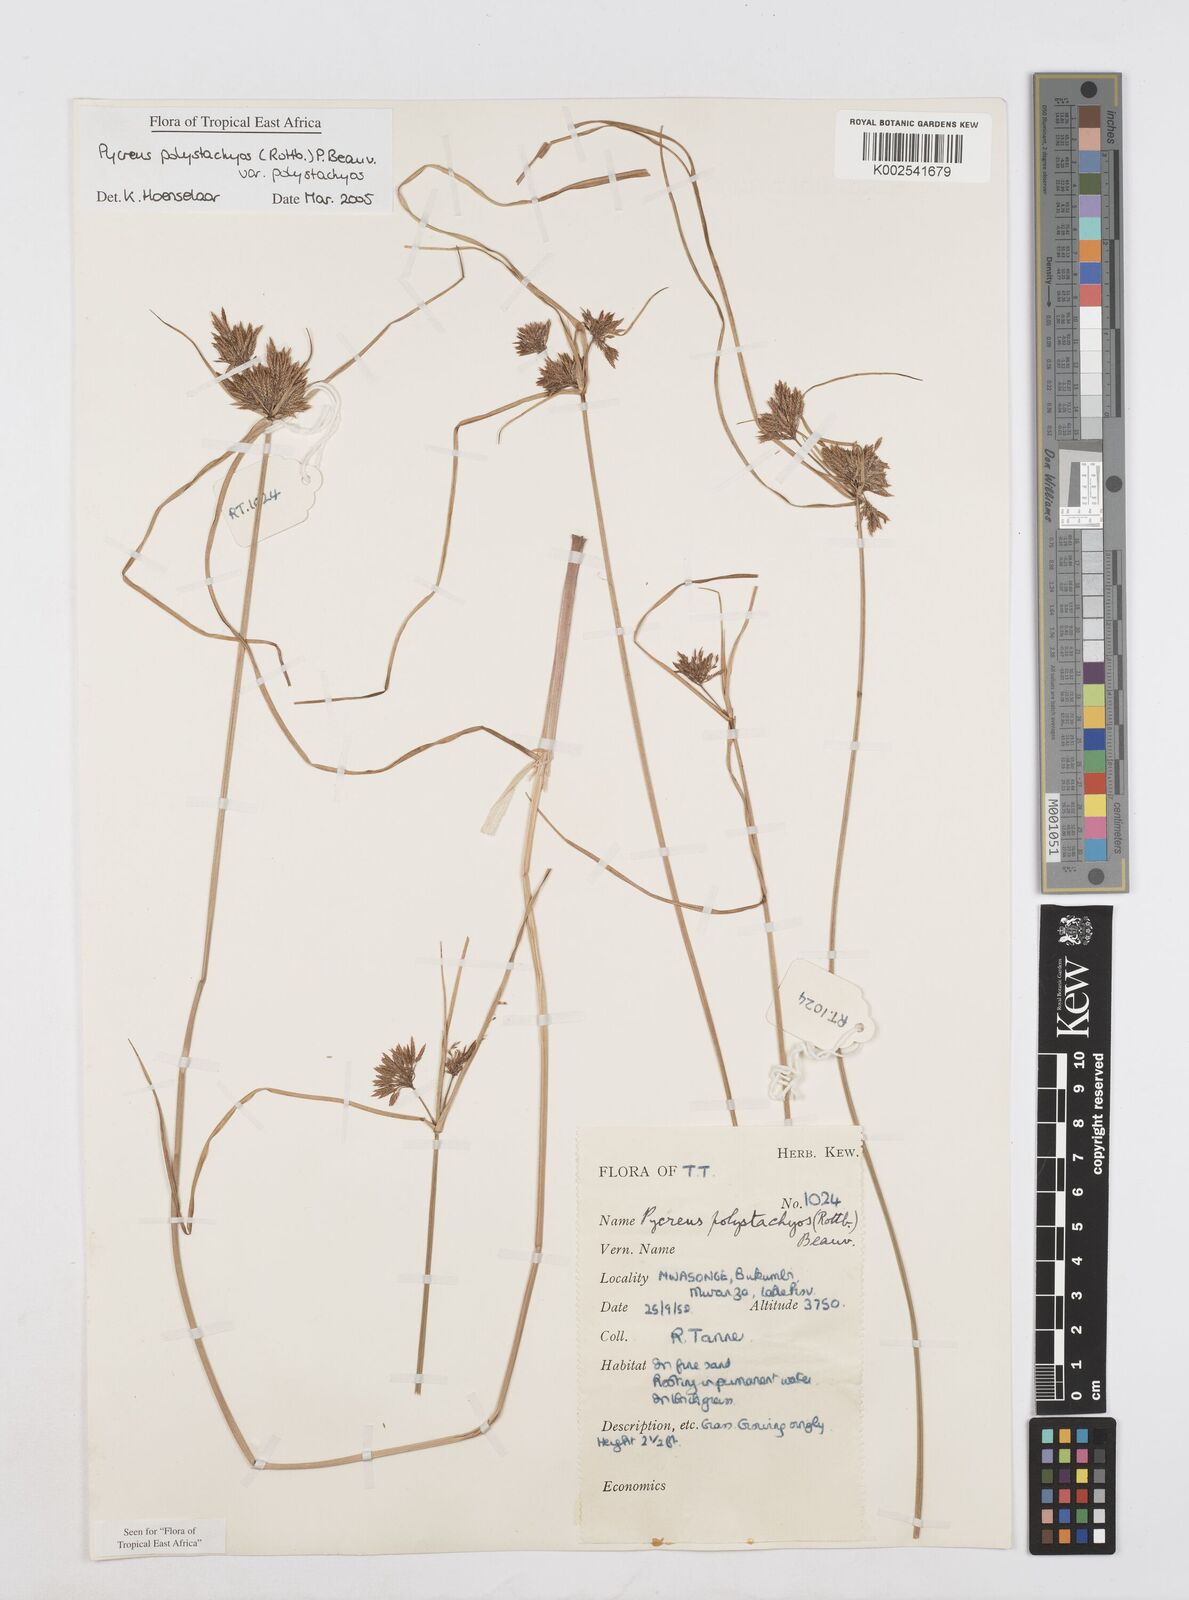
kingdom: Plantae
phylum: Tracheophyta
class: Liliopsida
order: Poales
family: Cyperaceae
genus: Cyperus
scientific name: Cyperus polystachyos
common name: Bunchy flat sedge
